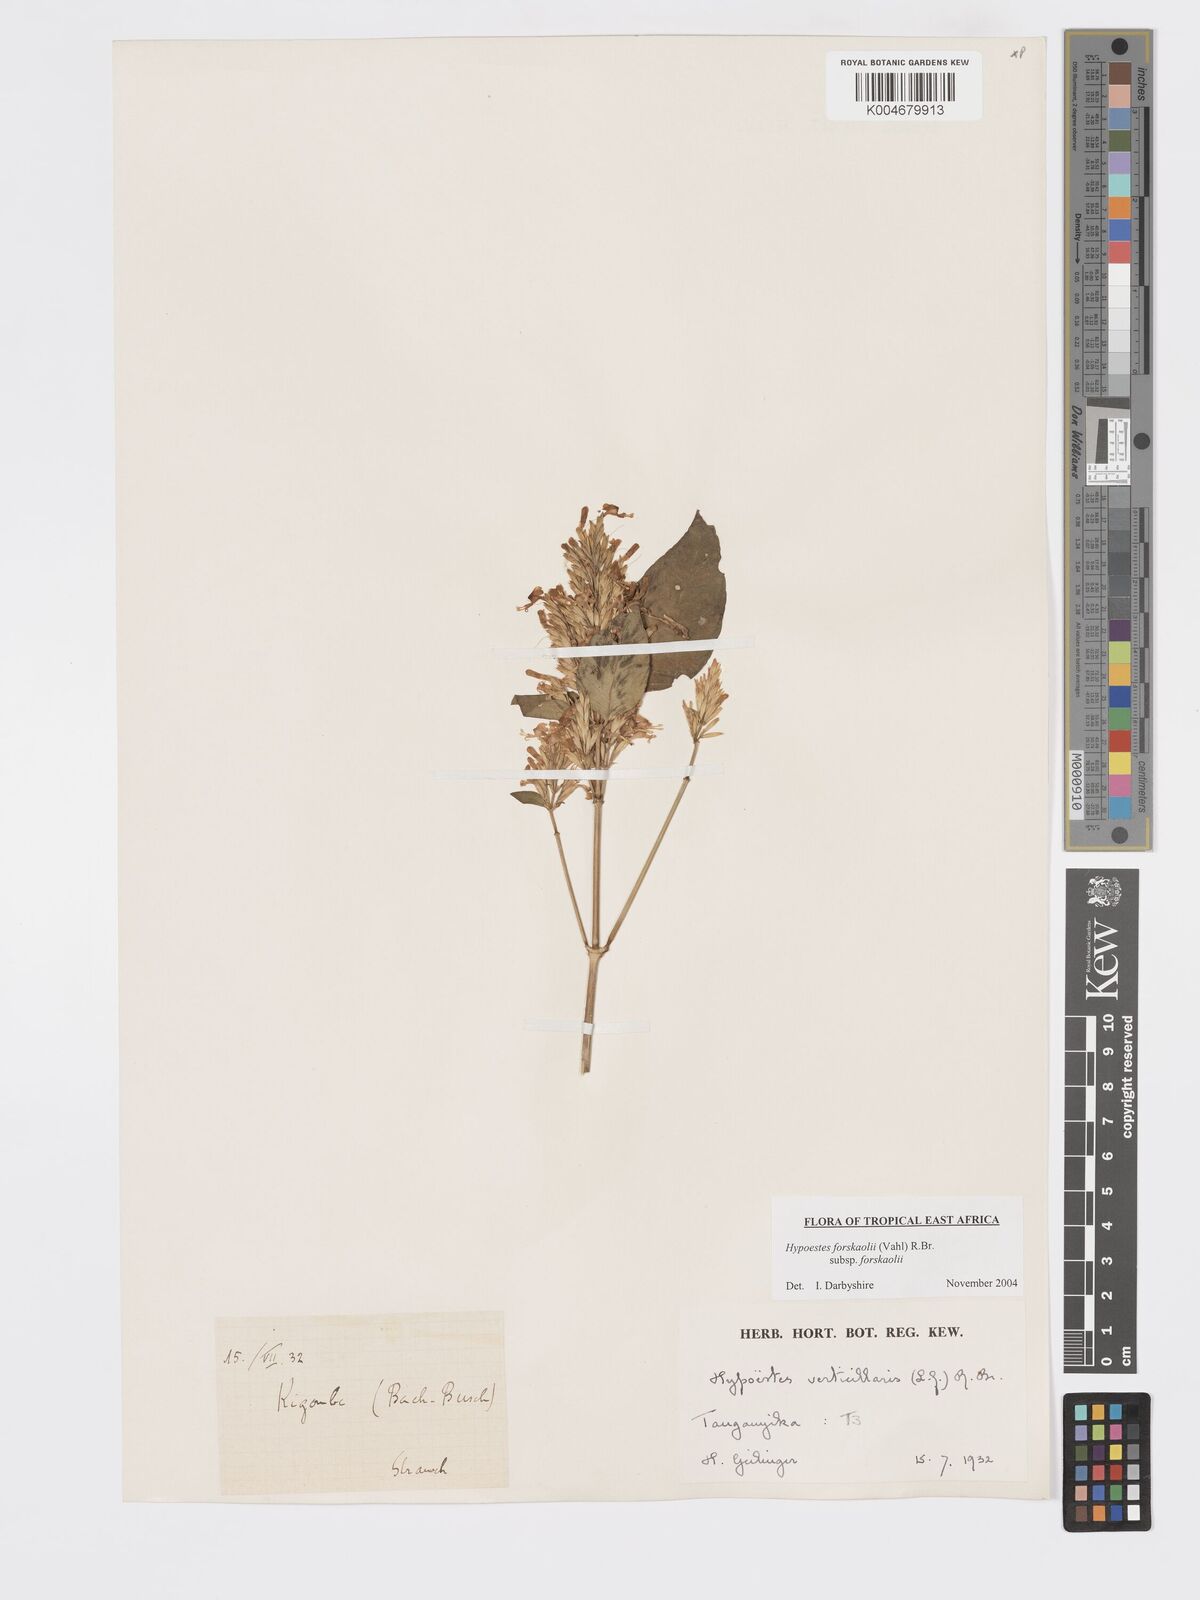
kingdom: Plantae
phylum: Tracheophyta
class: Magnoliopsida
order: Lamiales
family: Acanthaceae
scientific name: Acanthaceae
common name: Acanthaceae
